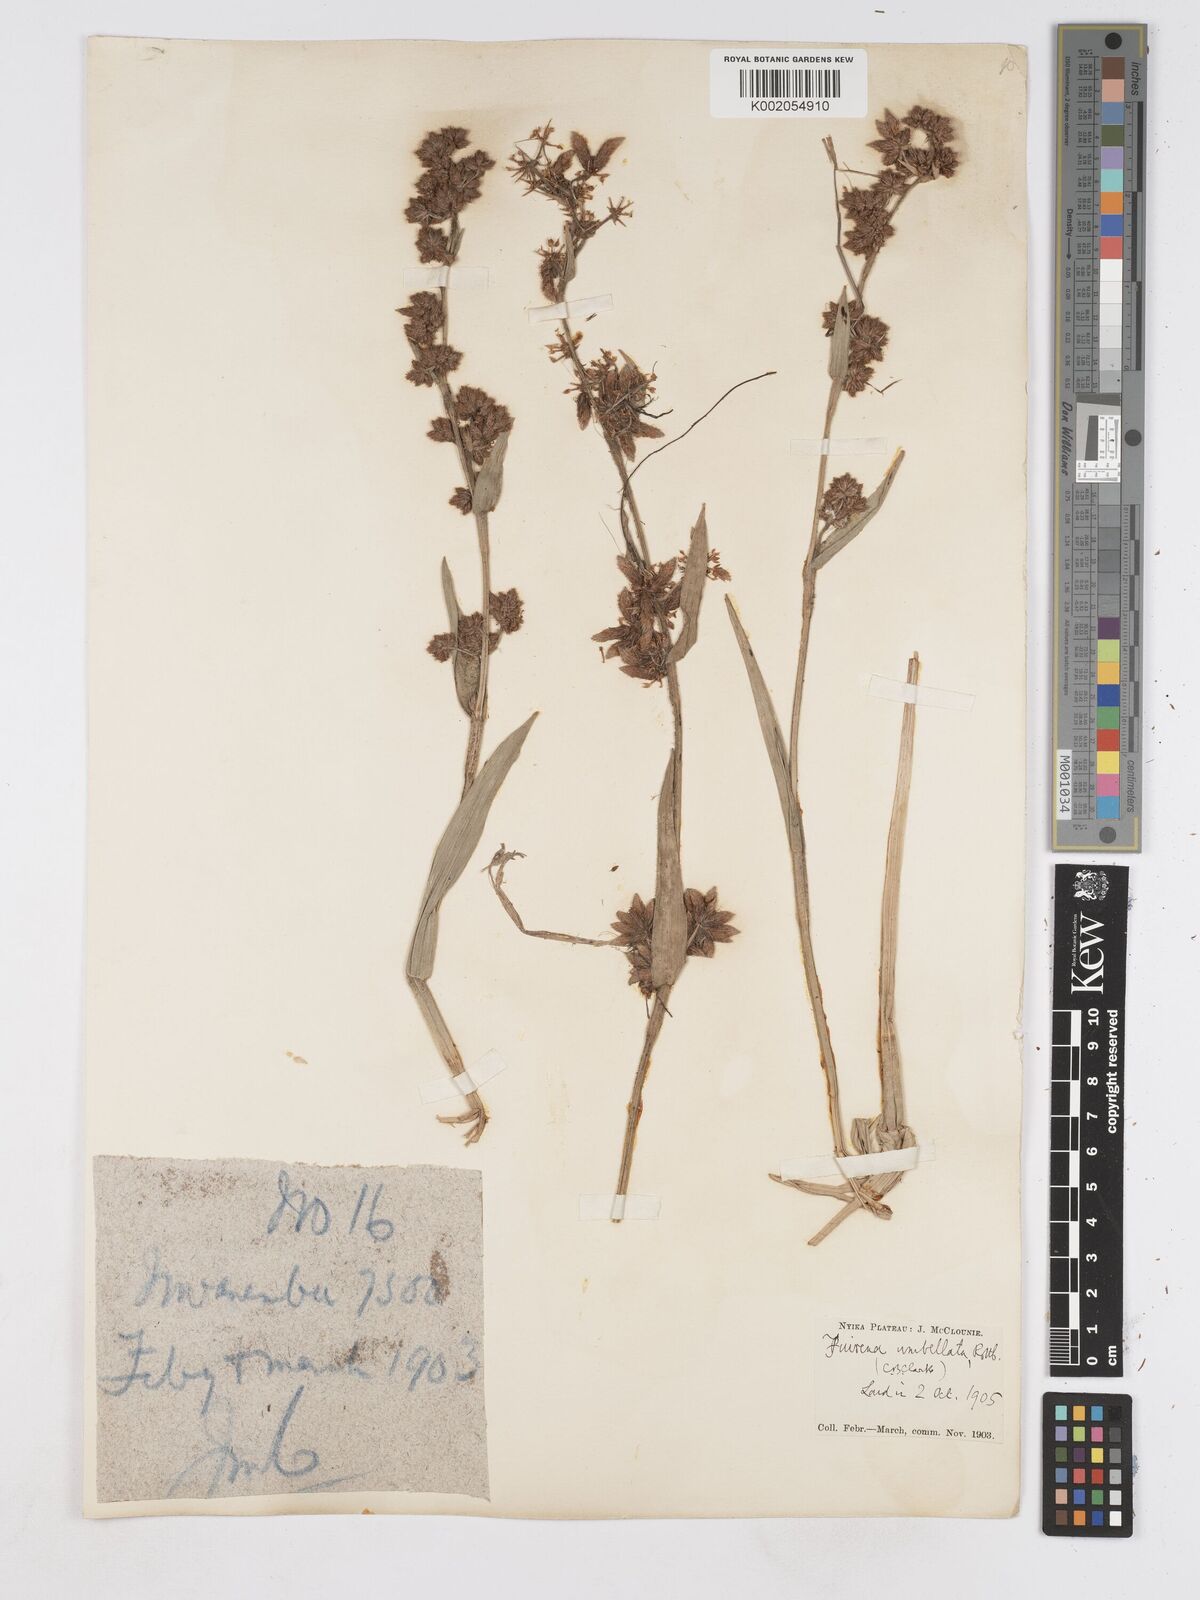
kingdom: Plantae
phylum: Tracheophyta
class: Liliopsida
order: Poales
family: Cyperaceae
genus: Fuirena
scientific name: Fuirena umbellata
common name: Yefen
